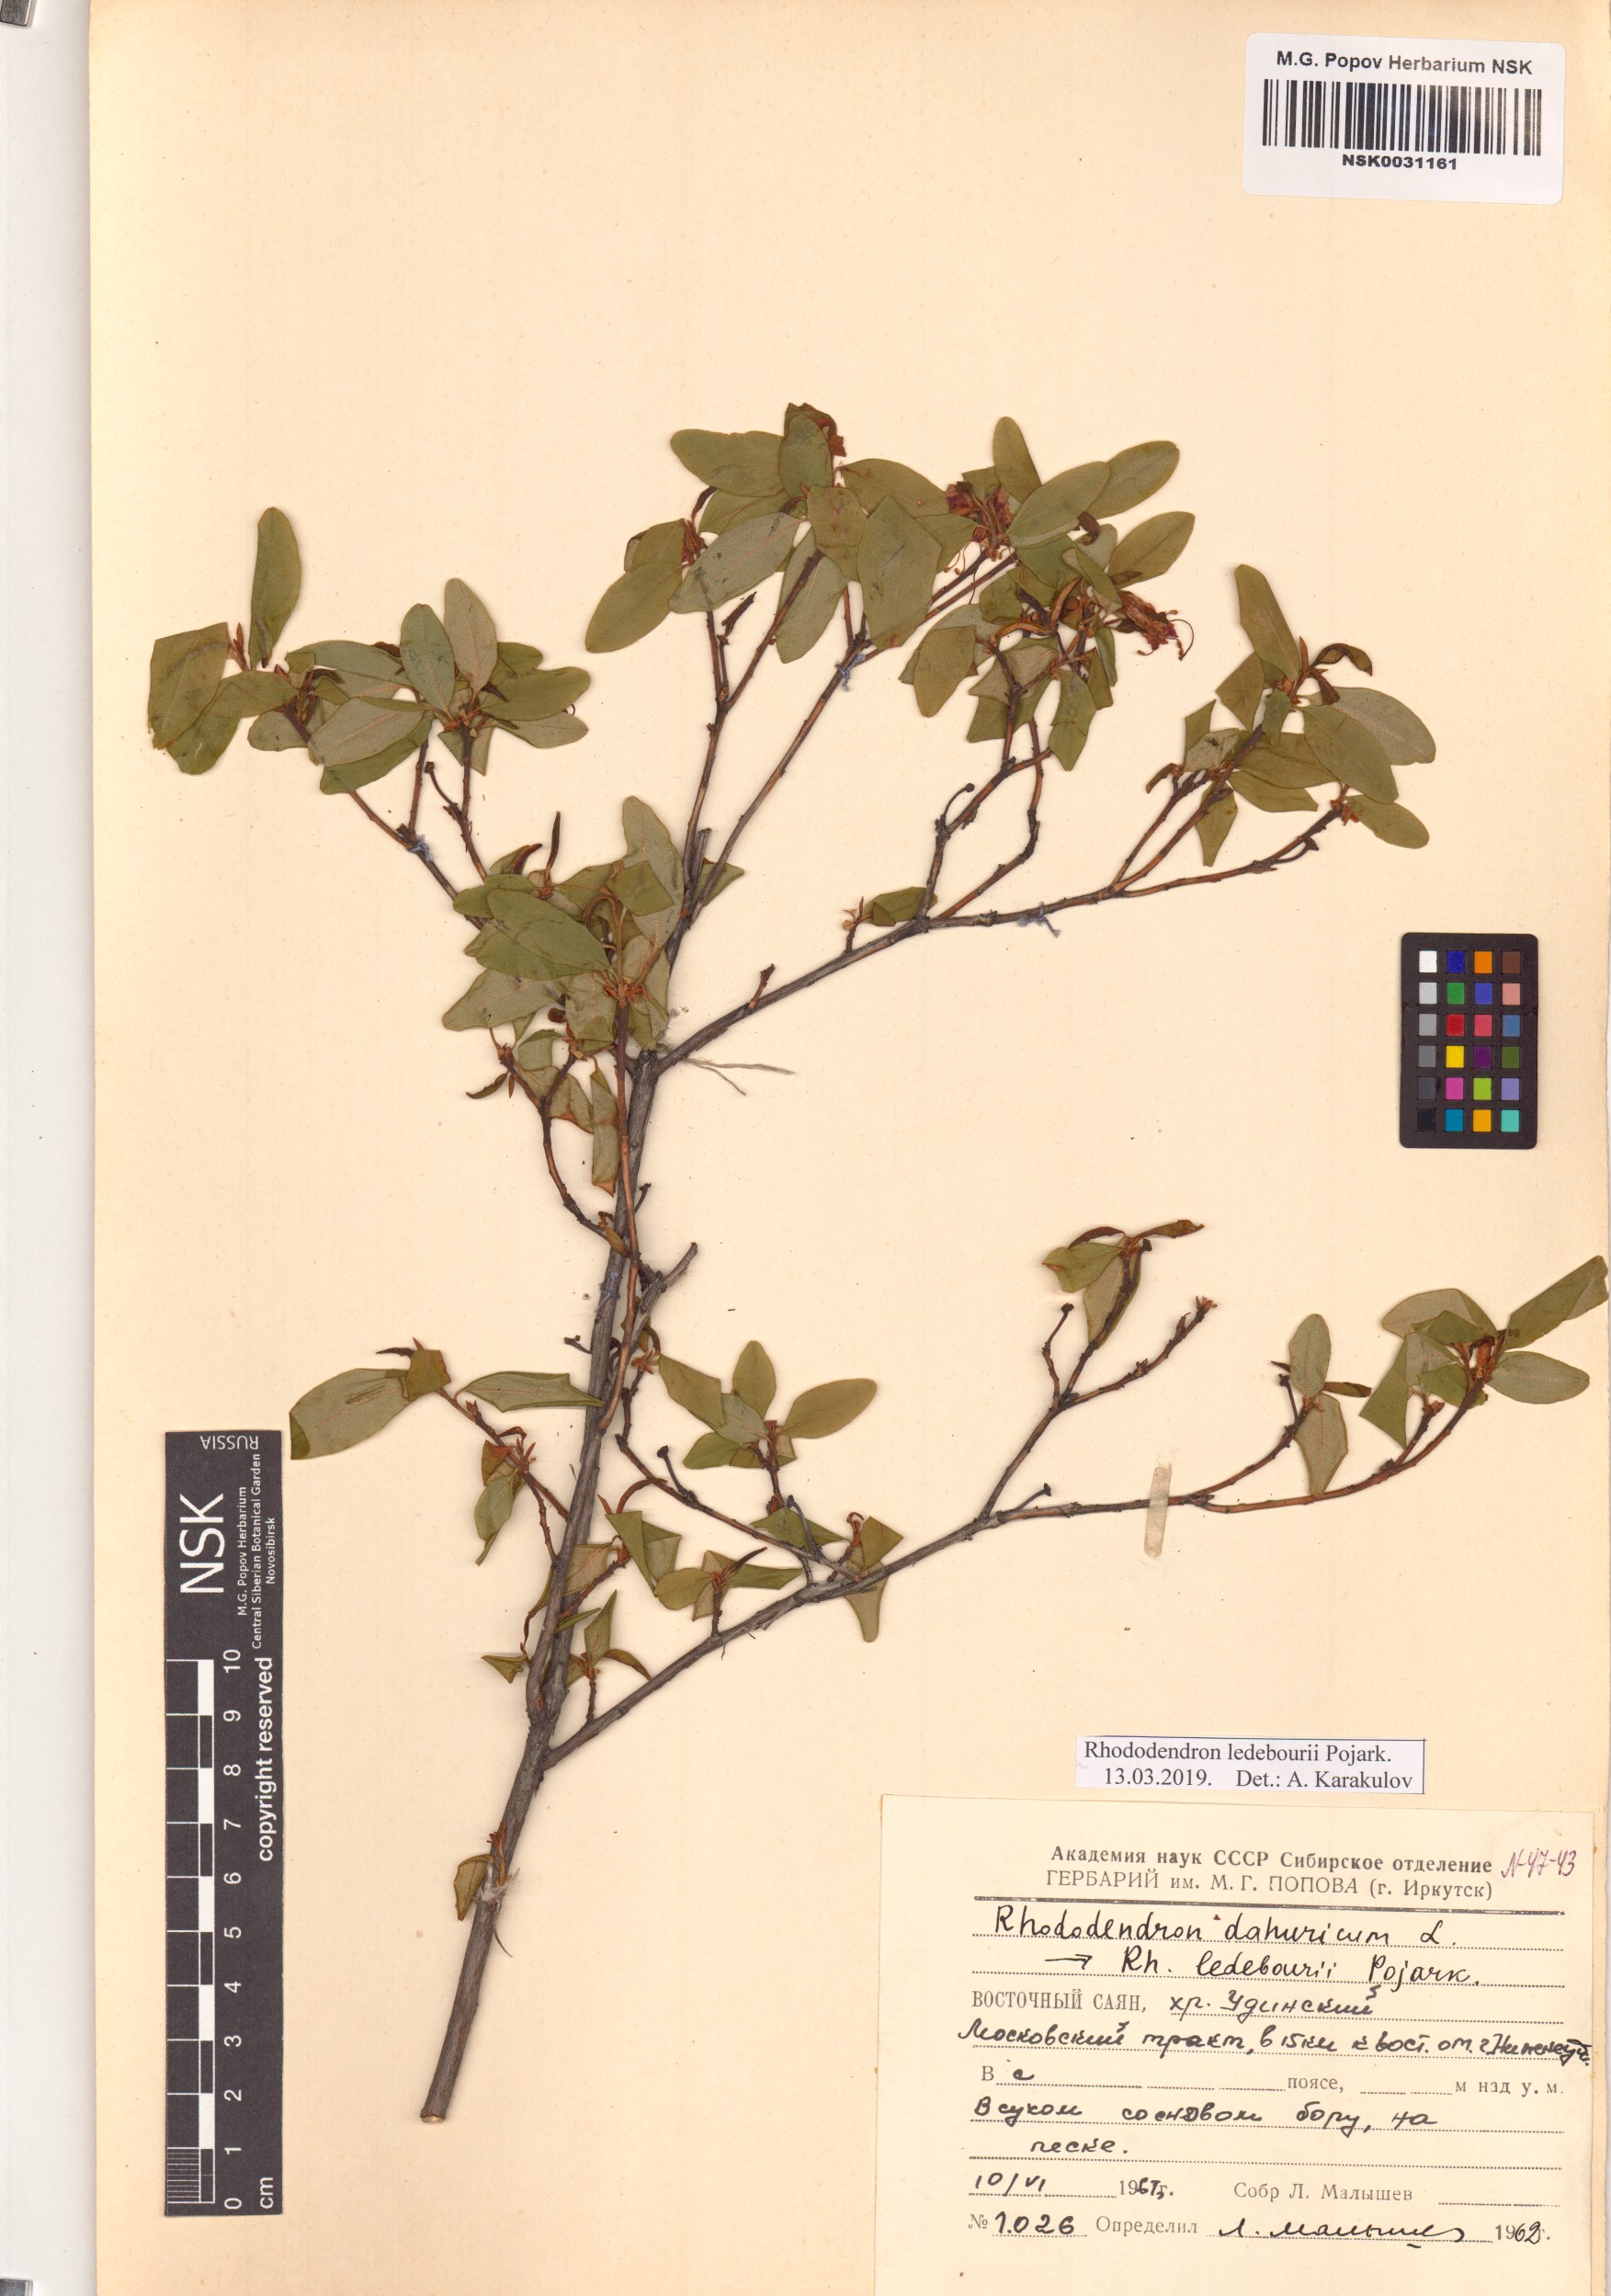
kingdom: Plantae
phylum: Tracheophyta
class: Magnoliopsida
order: Ericales
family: Ericaceae
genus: Rhododendron
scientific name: Rhododendron dauricum
